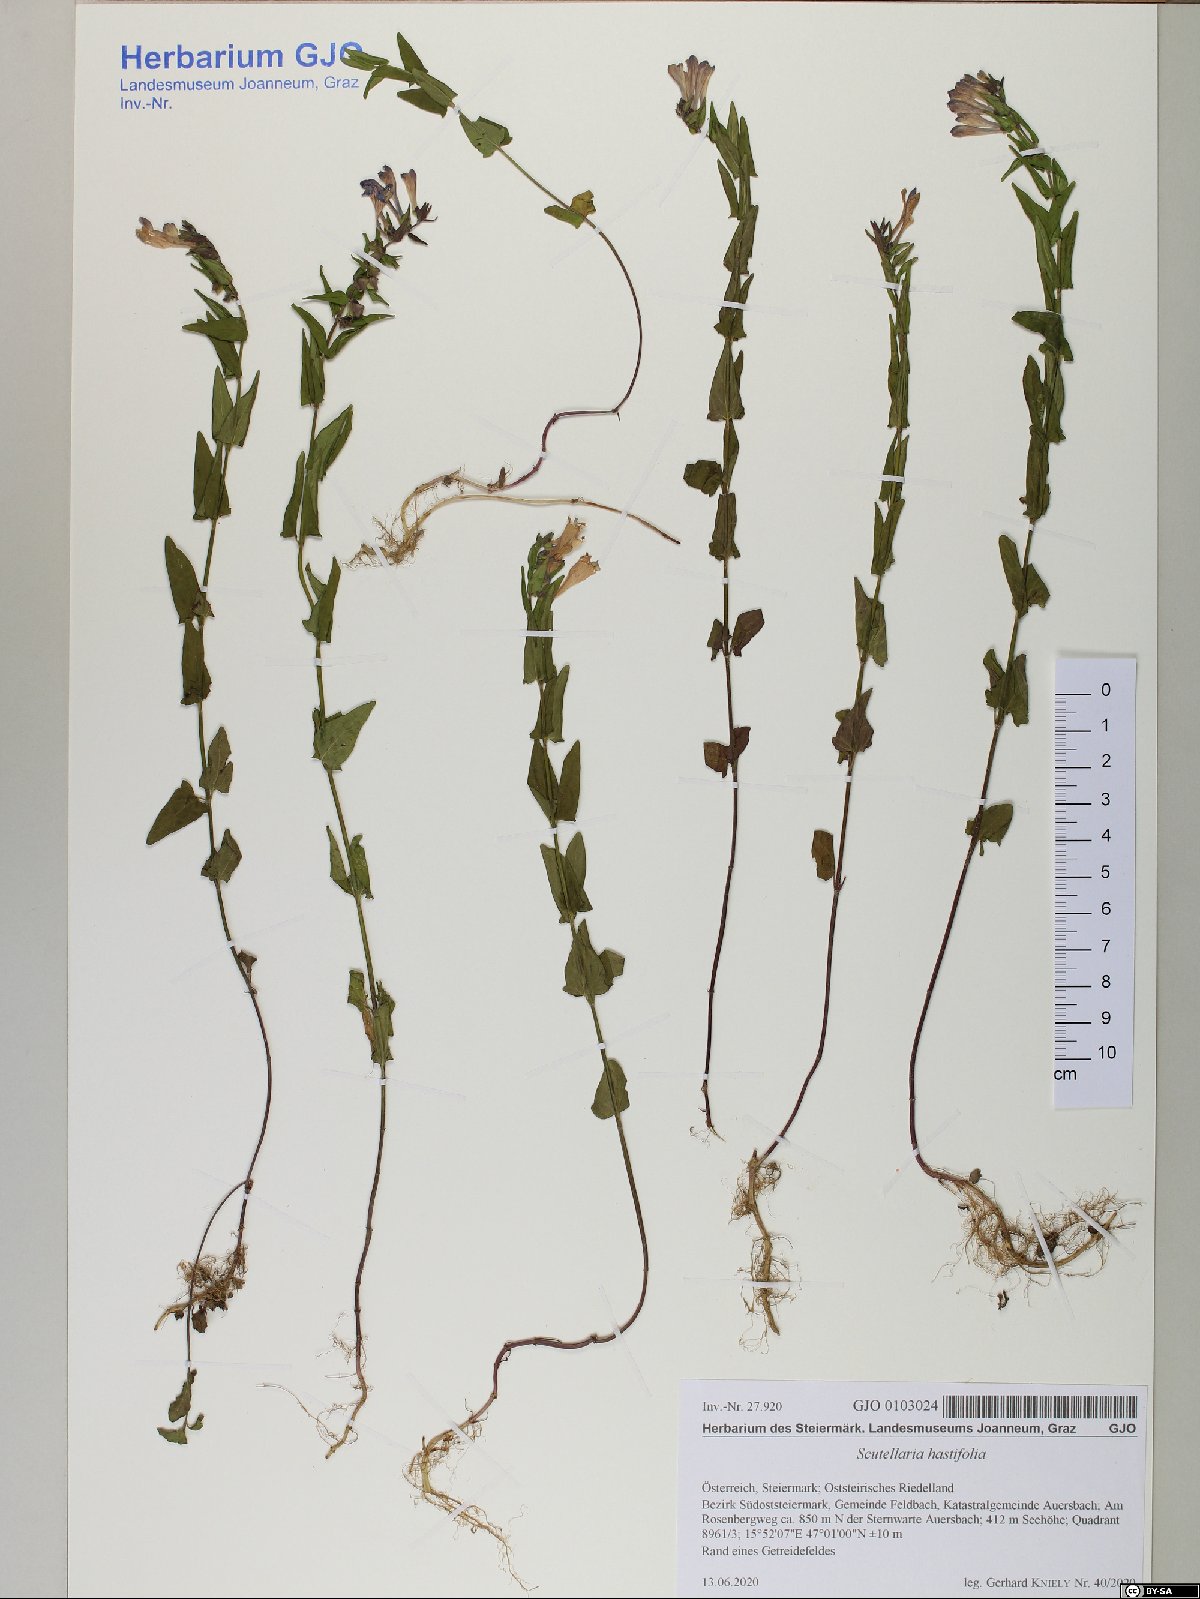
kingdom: Plantae
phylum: Tracheophyta
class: Magnoliopsida
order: Lamiales
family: Lamiaceae
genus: Scutellaria
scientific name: Scutellaria hastifolia
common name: Norfolk skullcap
